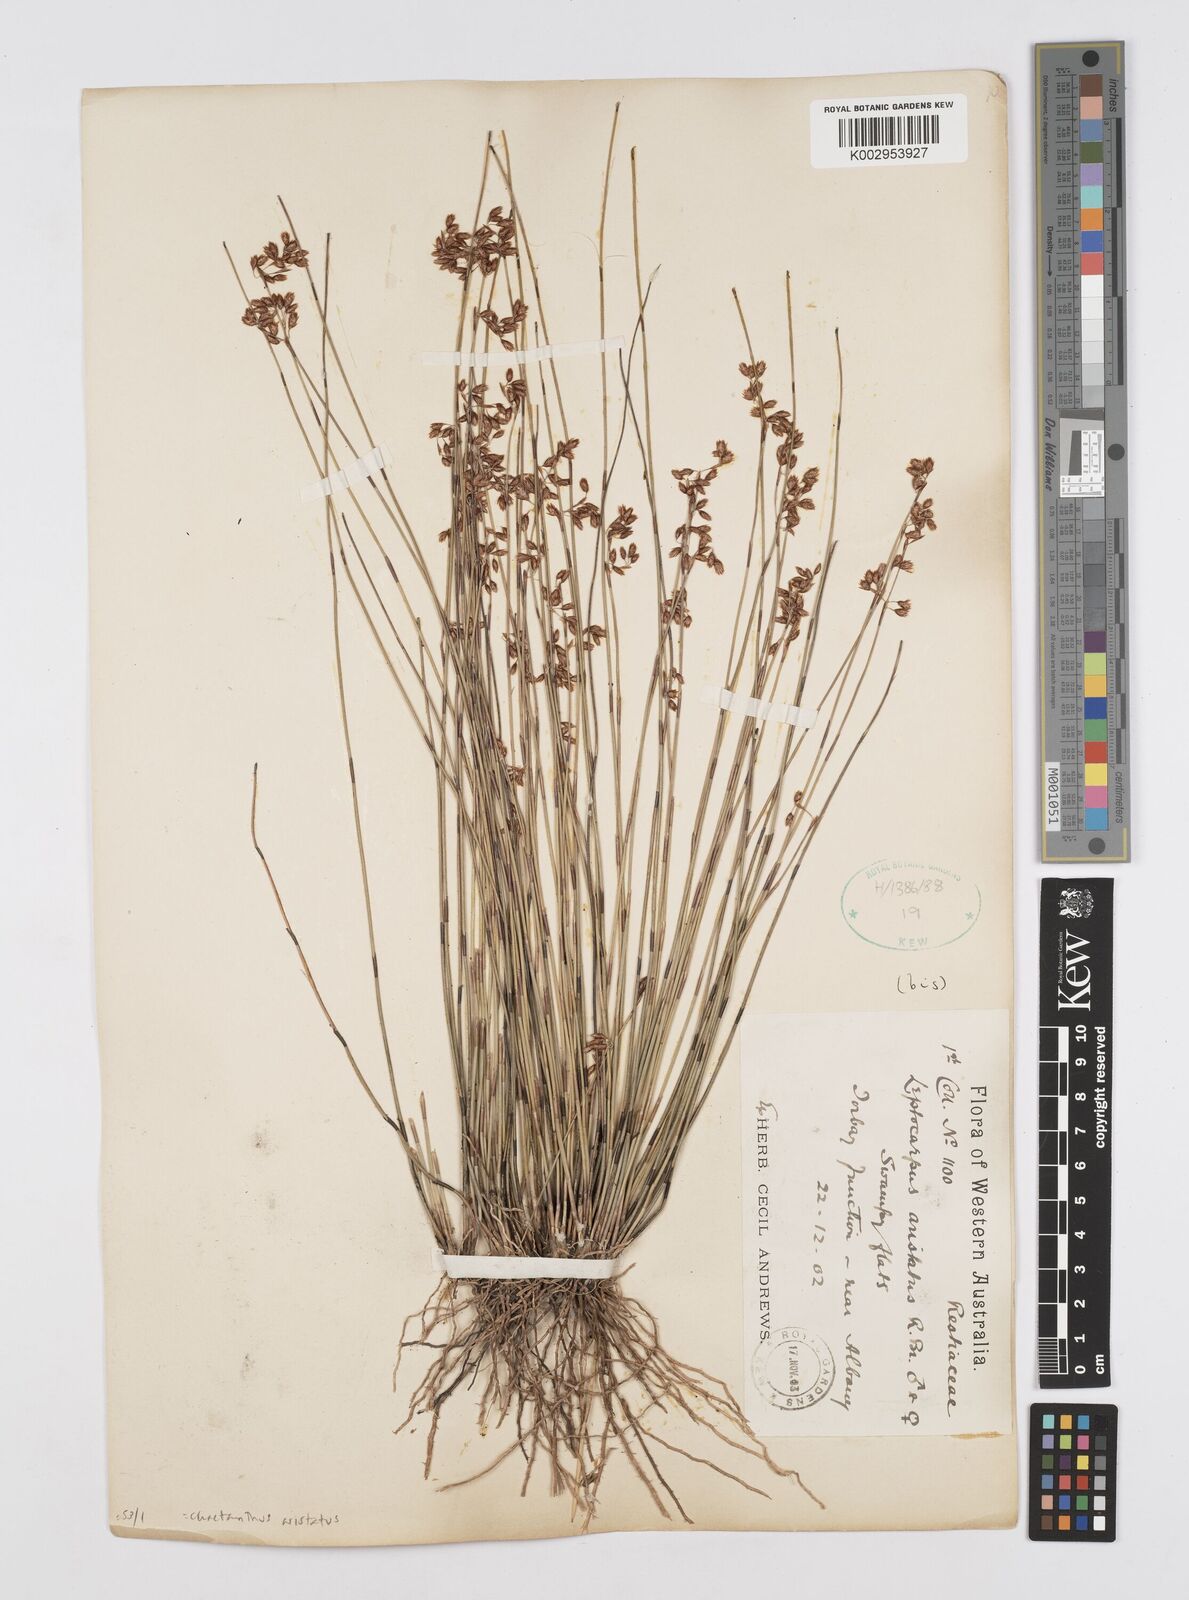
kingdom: Plantae
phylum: Tracheophyta
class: Liliopsida
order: Poales
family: Restionaceae
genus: Chaetanthus
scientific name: Chaetanthus aristatus
